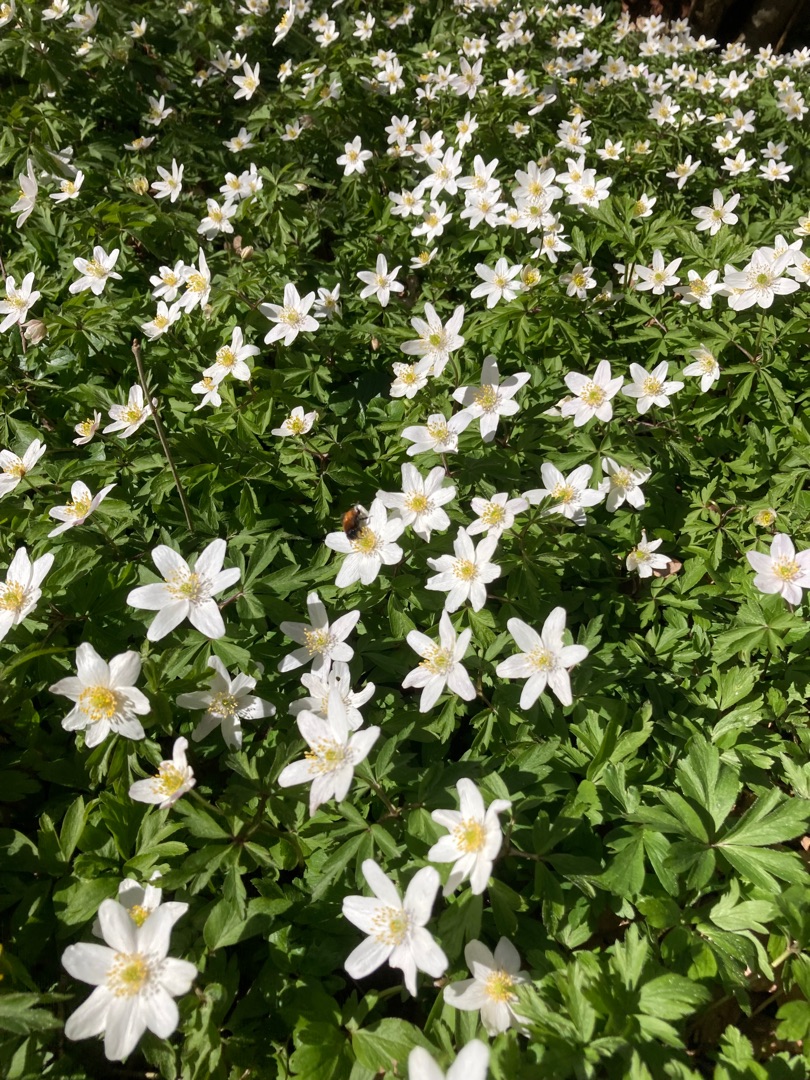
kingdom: Plantae
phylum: Tracheophyta
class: Magnoliopsida
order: Ranunculales
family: Ranunculaceae
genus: Anemone
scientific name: Anemone nemorosa
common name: Hvid anemone
